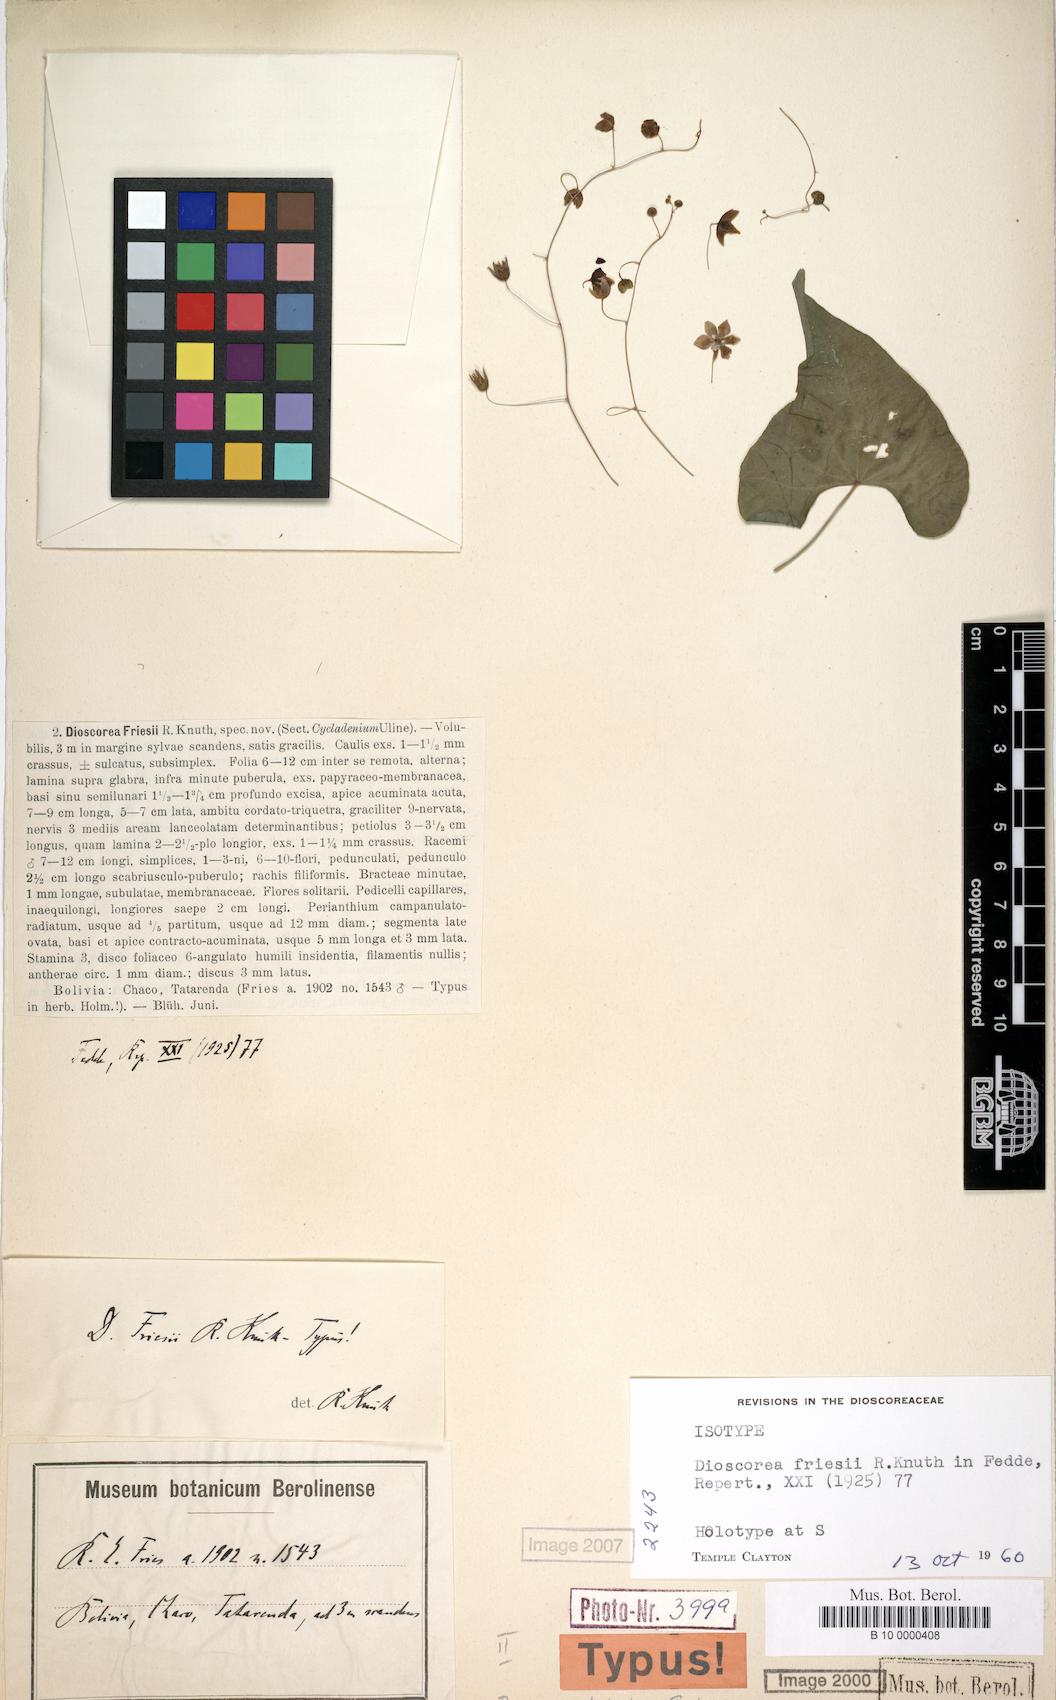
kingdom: Plantae
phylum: Tracheophyta
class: Liliopsida
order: Dioscoreales
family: Dioscoreaceae
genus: Dioscorea
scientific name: Dioscorea monadelpha
